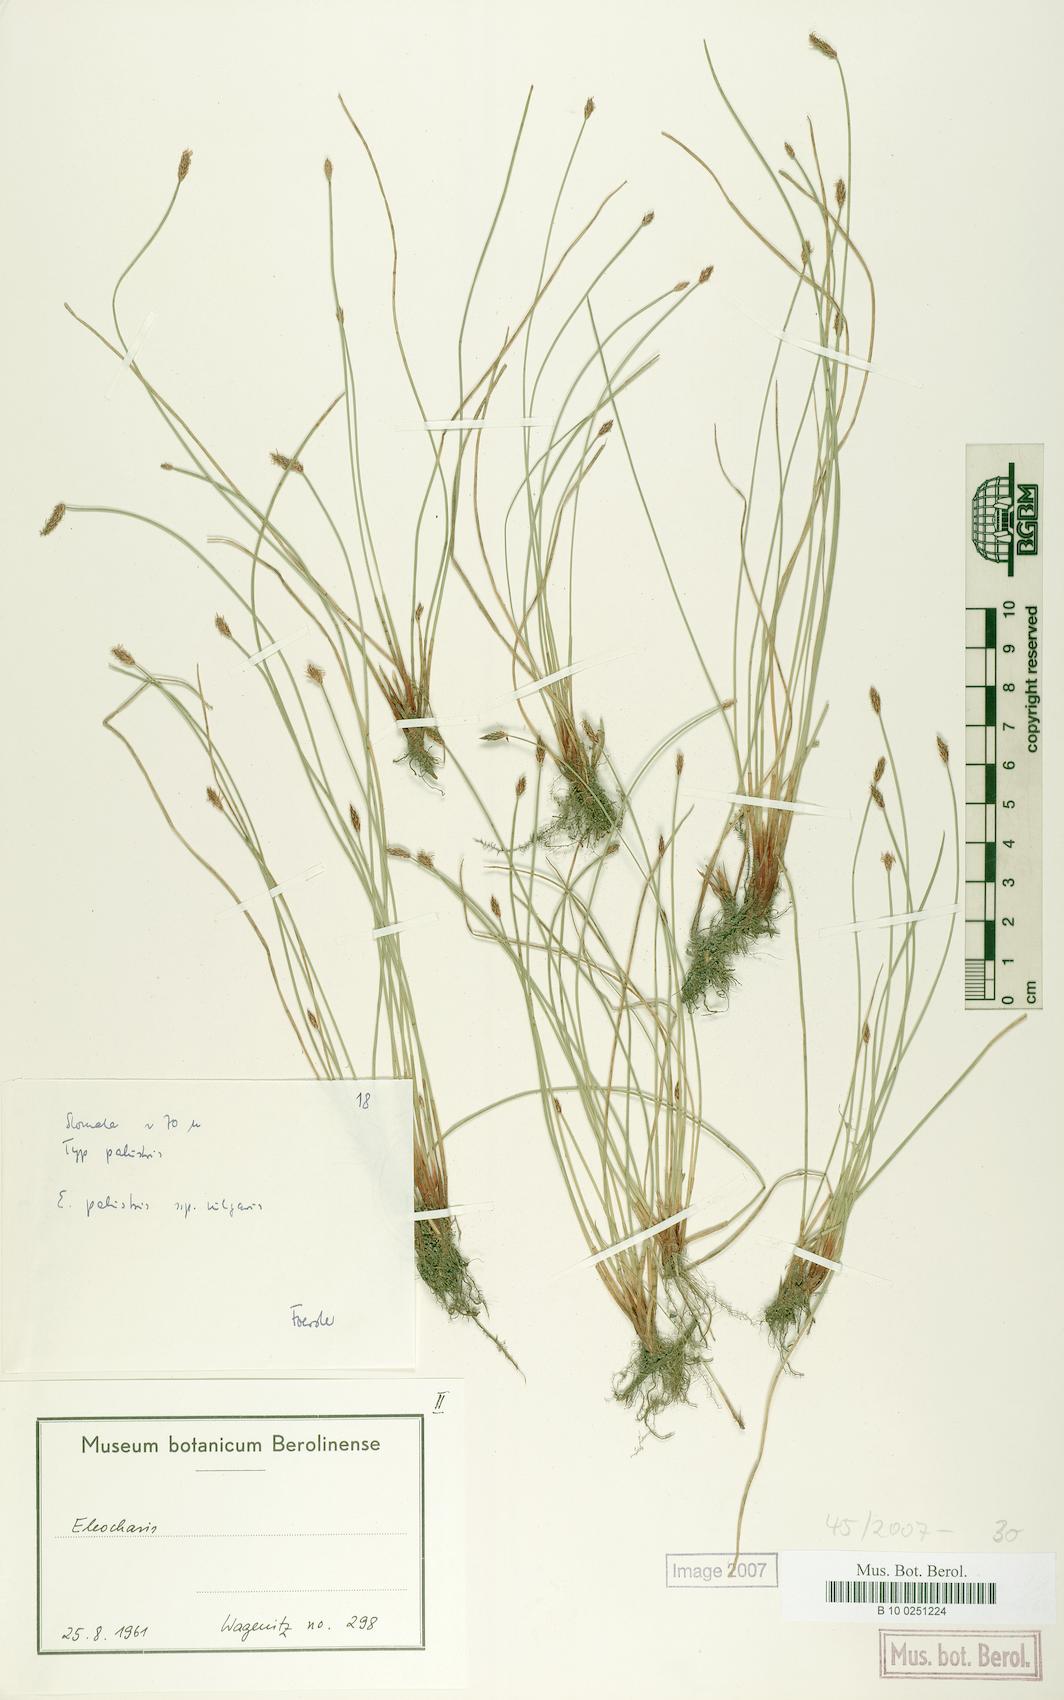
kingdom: Plantae
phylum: Tracheophyta
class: Liliopsida
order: Poales
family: Cyperaceae
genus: Eleocharis
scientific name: Eleocharis palustris
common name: Common spike-rush
